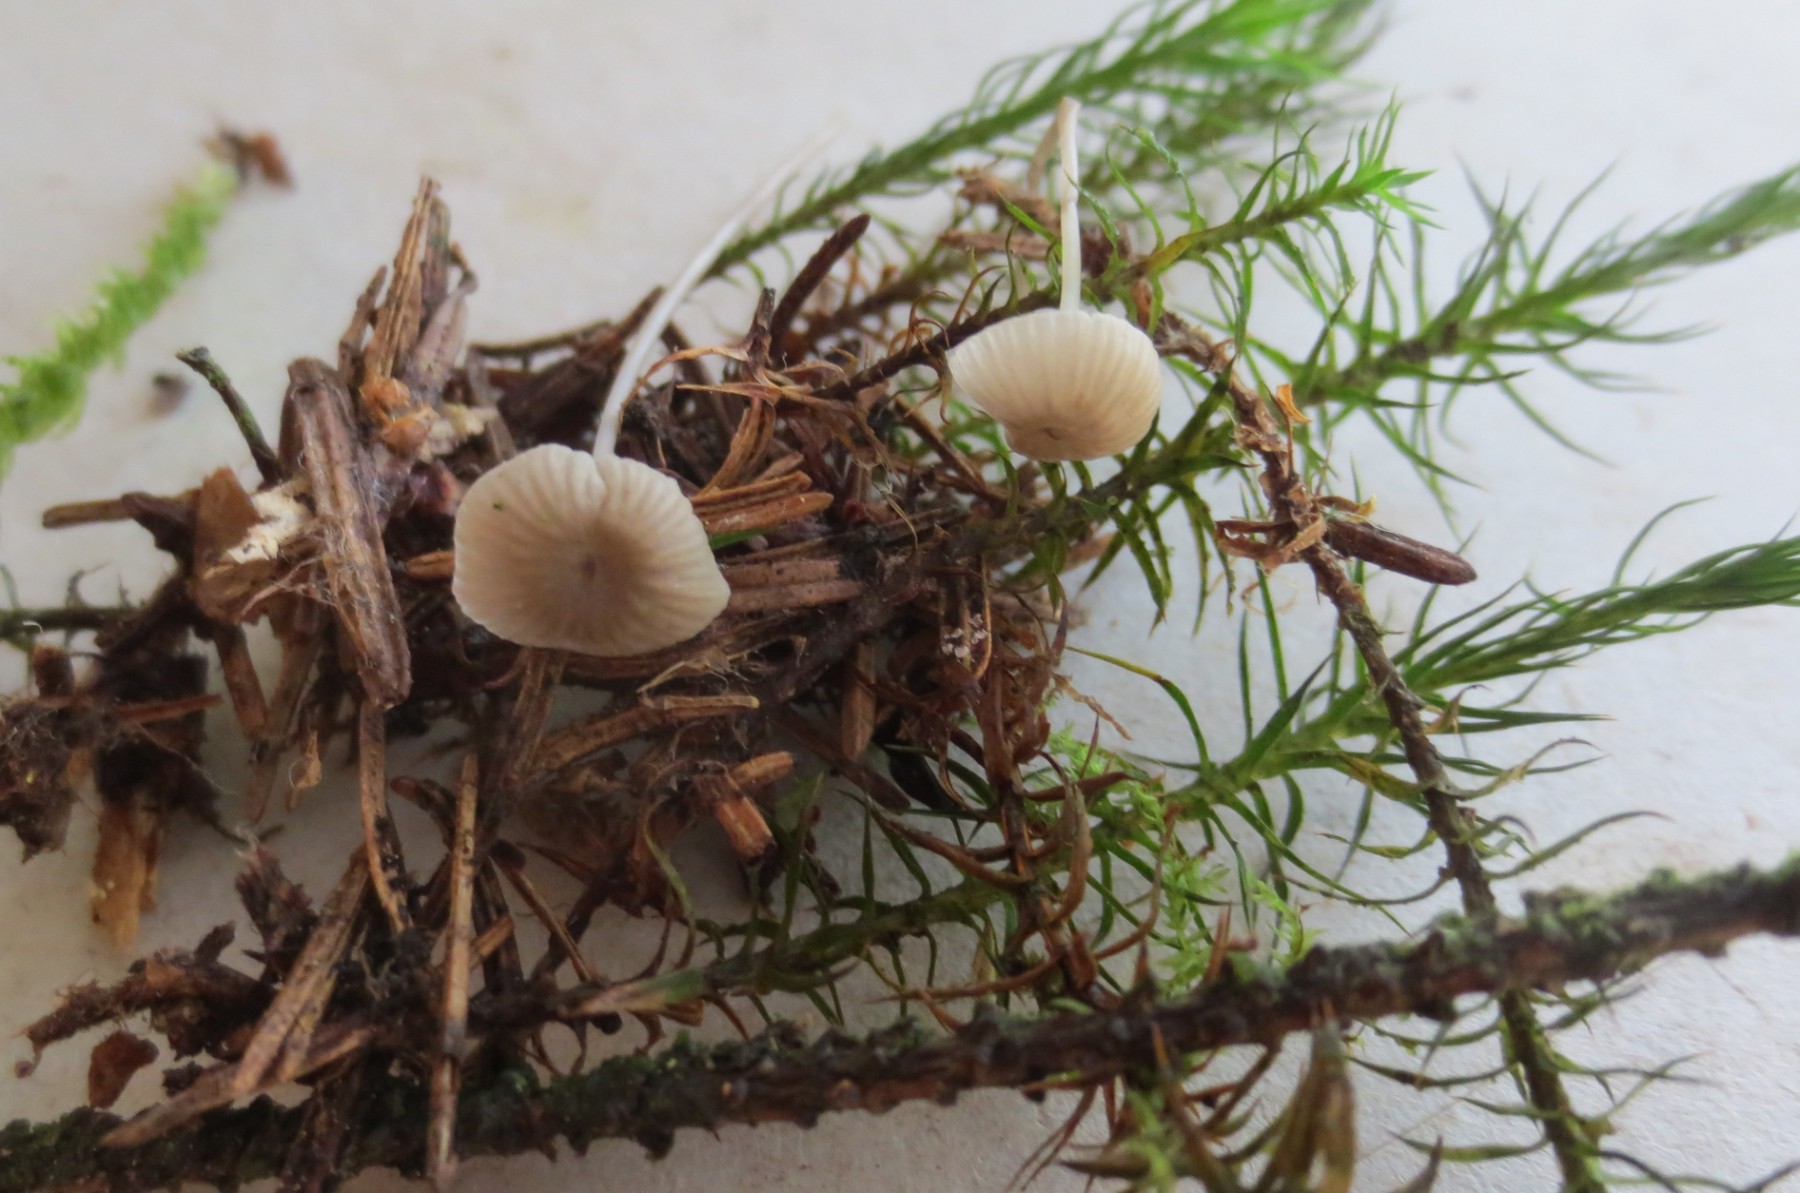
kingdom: Fungi
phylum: Basidiomycota
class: Agaricomycetes
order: Agaricales
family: Mycenaceae
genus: Mycena
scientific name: Mycena cinerella
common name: mel-huesvamp
